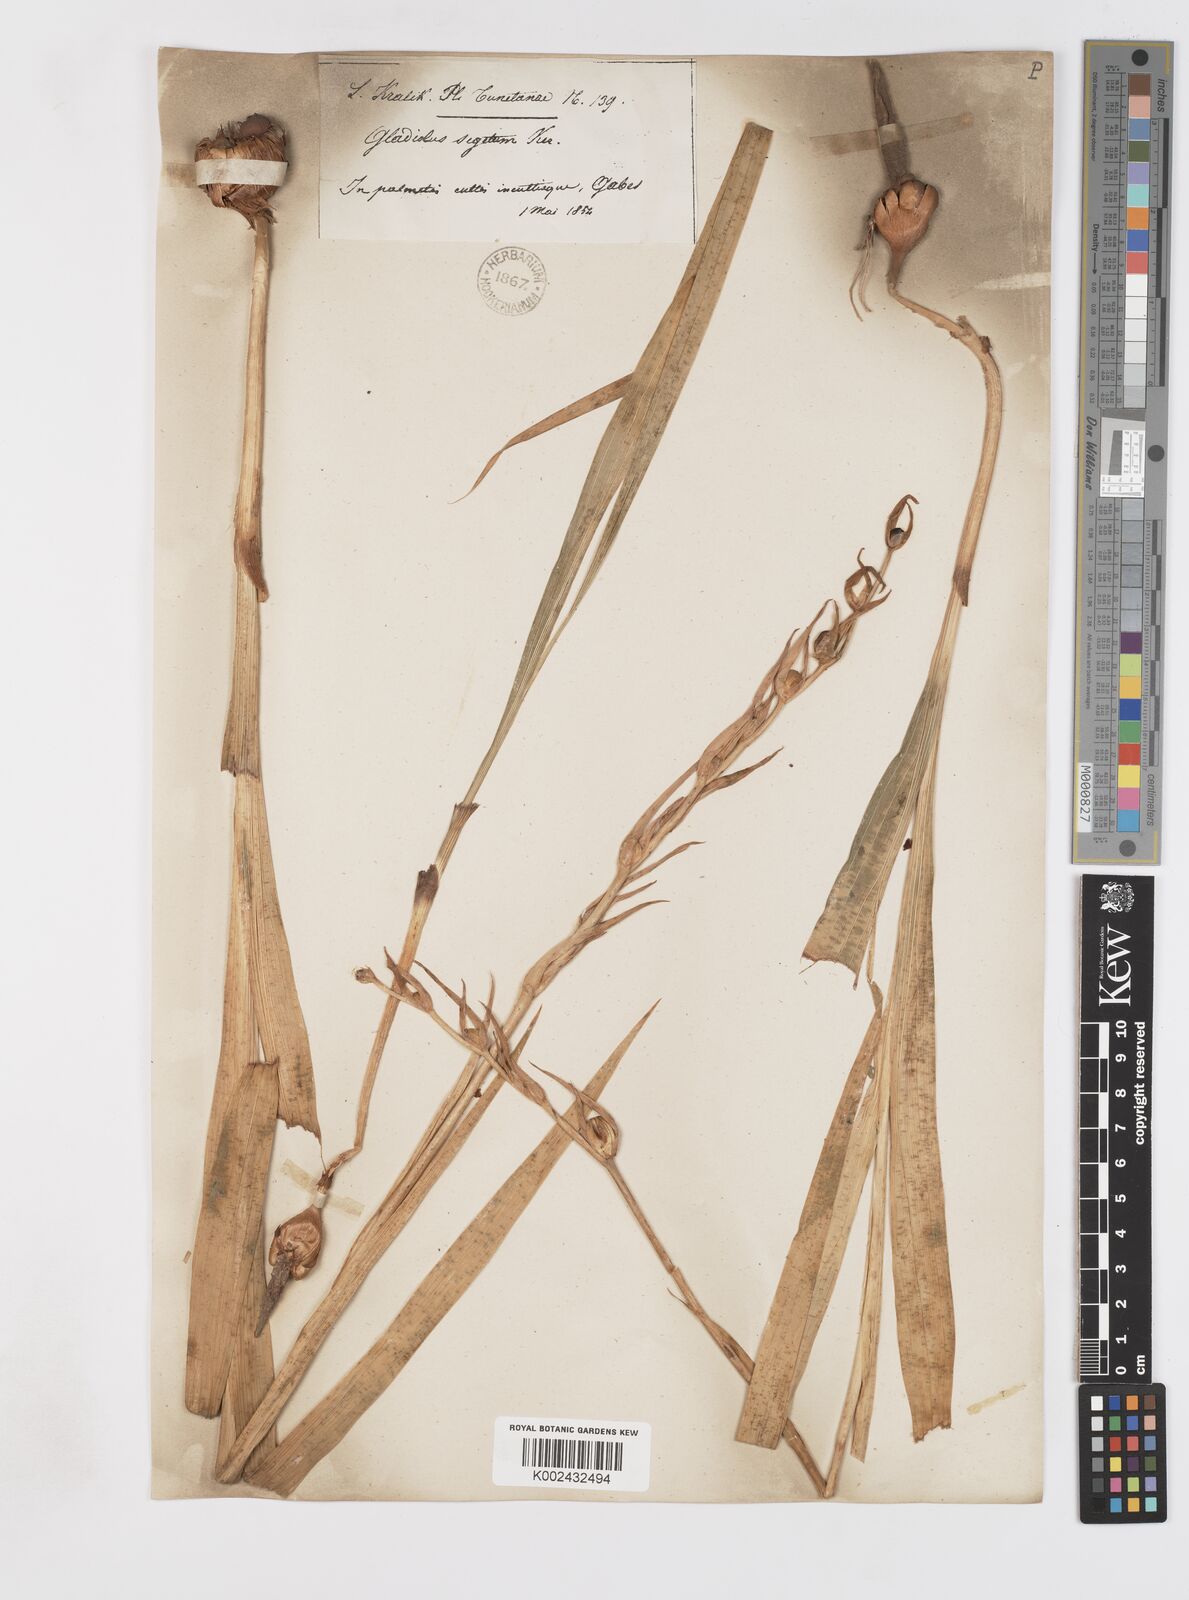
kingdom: Plantae
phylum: Tracheophyta
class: Liliopsida
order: Asparagales
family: Iridaceae
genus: Gladiolus
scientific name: Gladiolus italicus
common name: Field gladiolus
